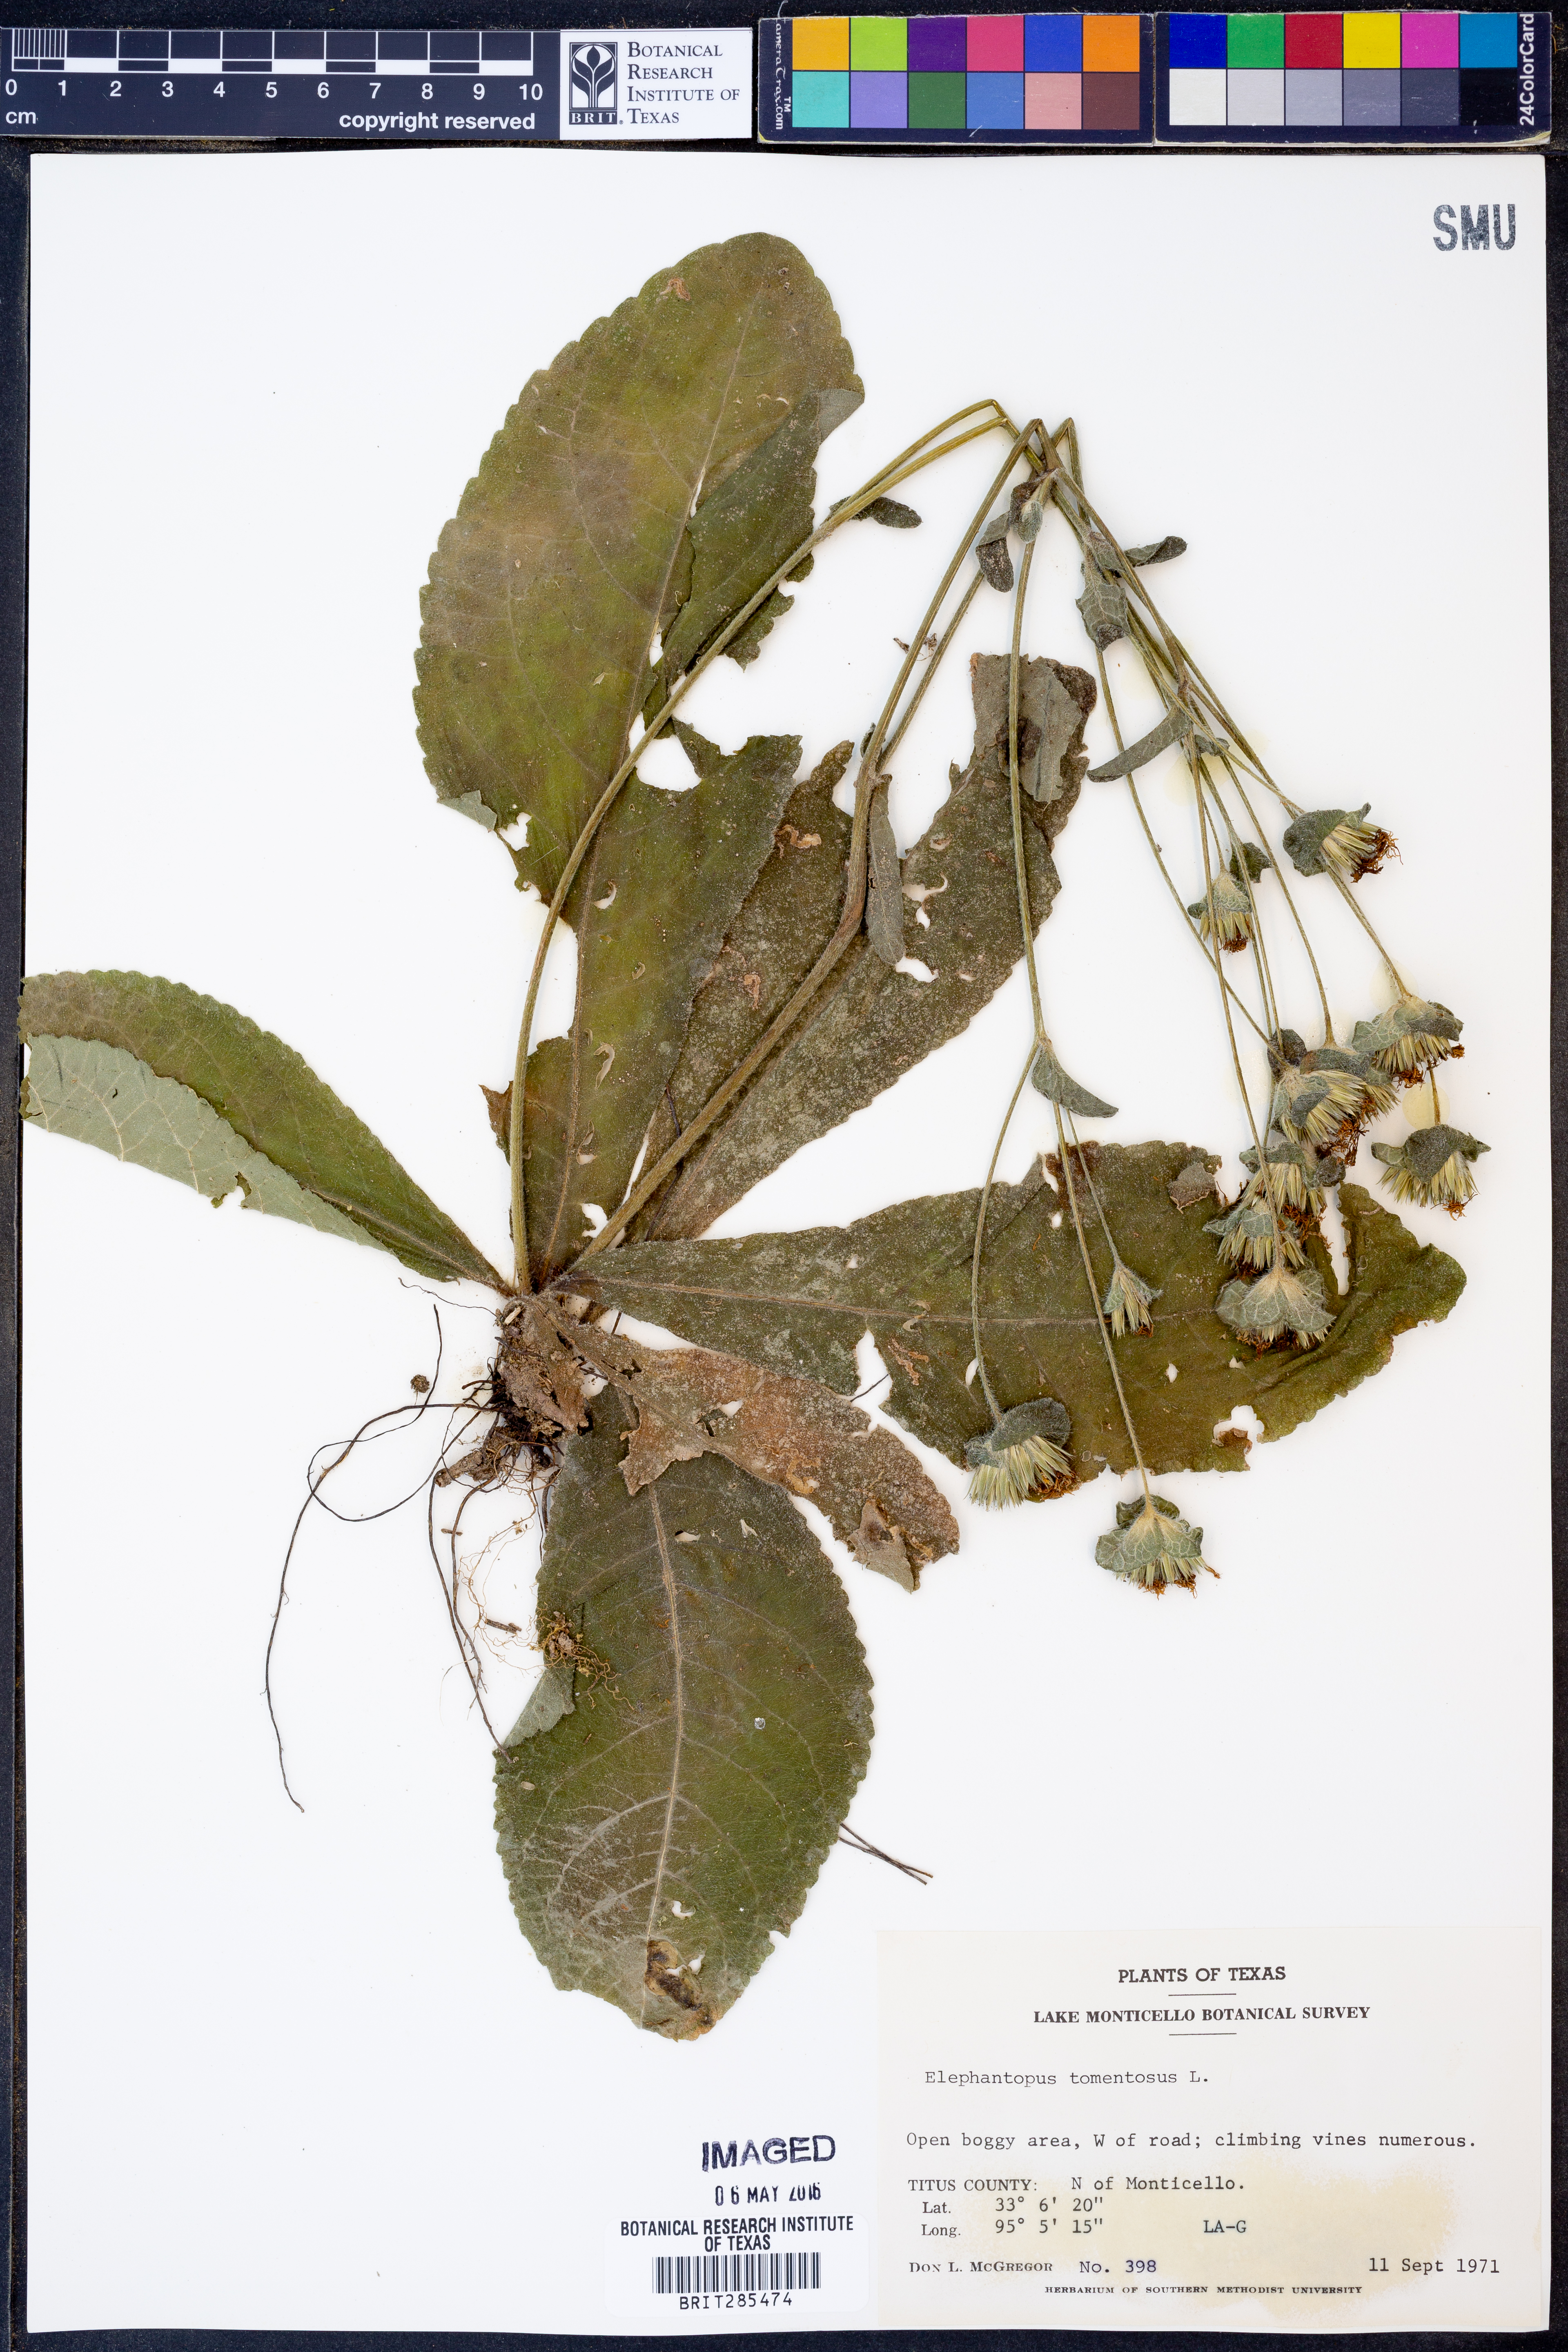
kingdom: Plantae
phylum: Tracheophyta
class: Magnoliopsida
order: Asterales
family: Asteraceae
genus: Elephantopus
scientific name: Elephantopus tomentosus
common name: Tobacco-weed
